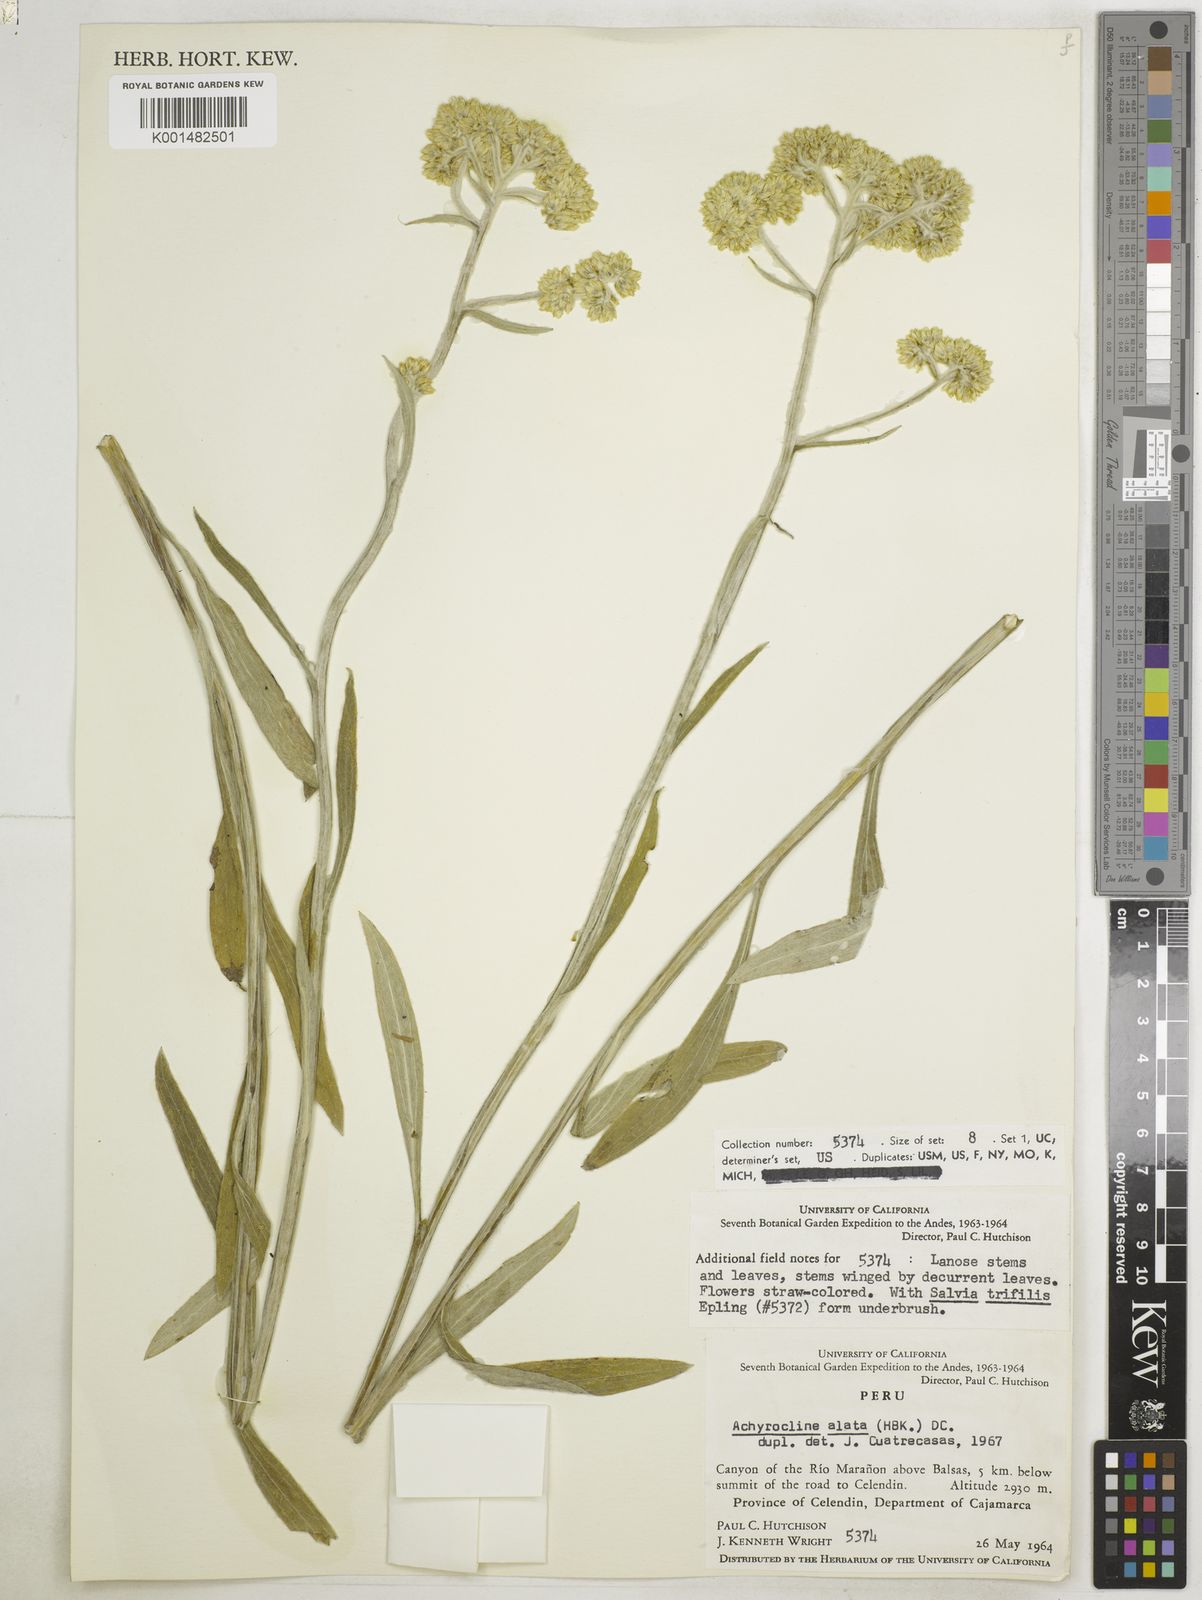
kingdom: Plantae
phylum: Tracheophyta
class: Magnoliopsida
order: Asterales
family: Asteraceae
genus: Achyrocline
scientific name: Achyrocline alata
